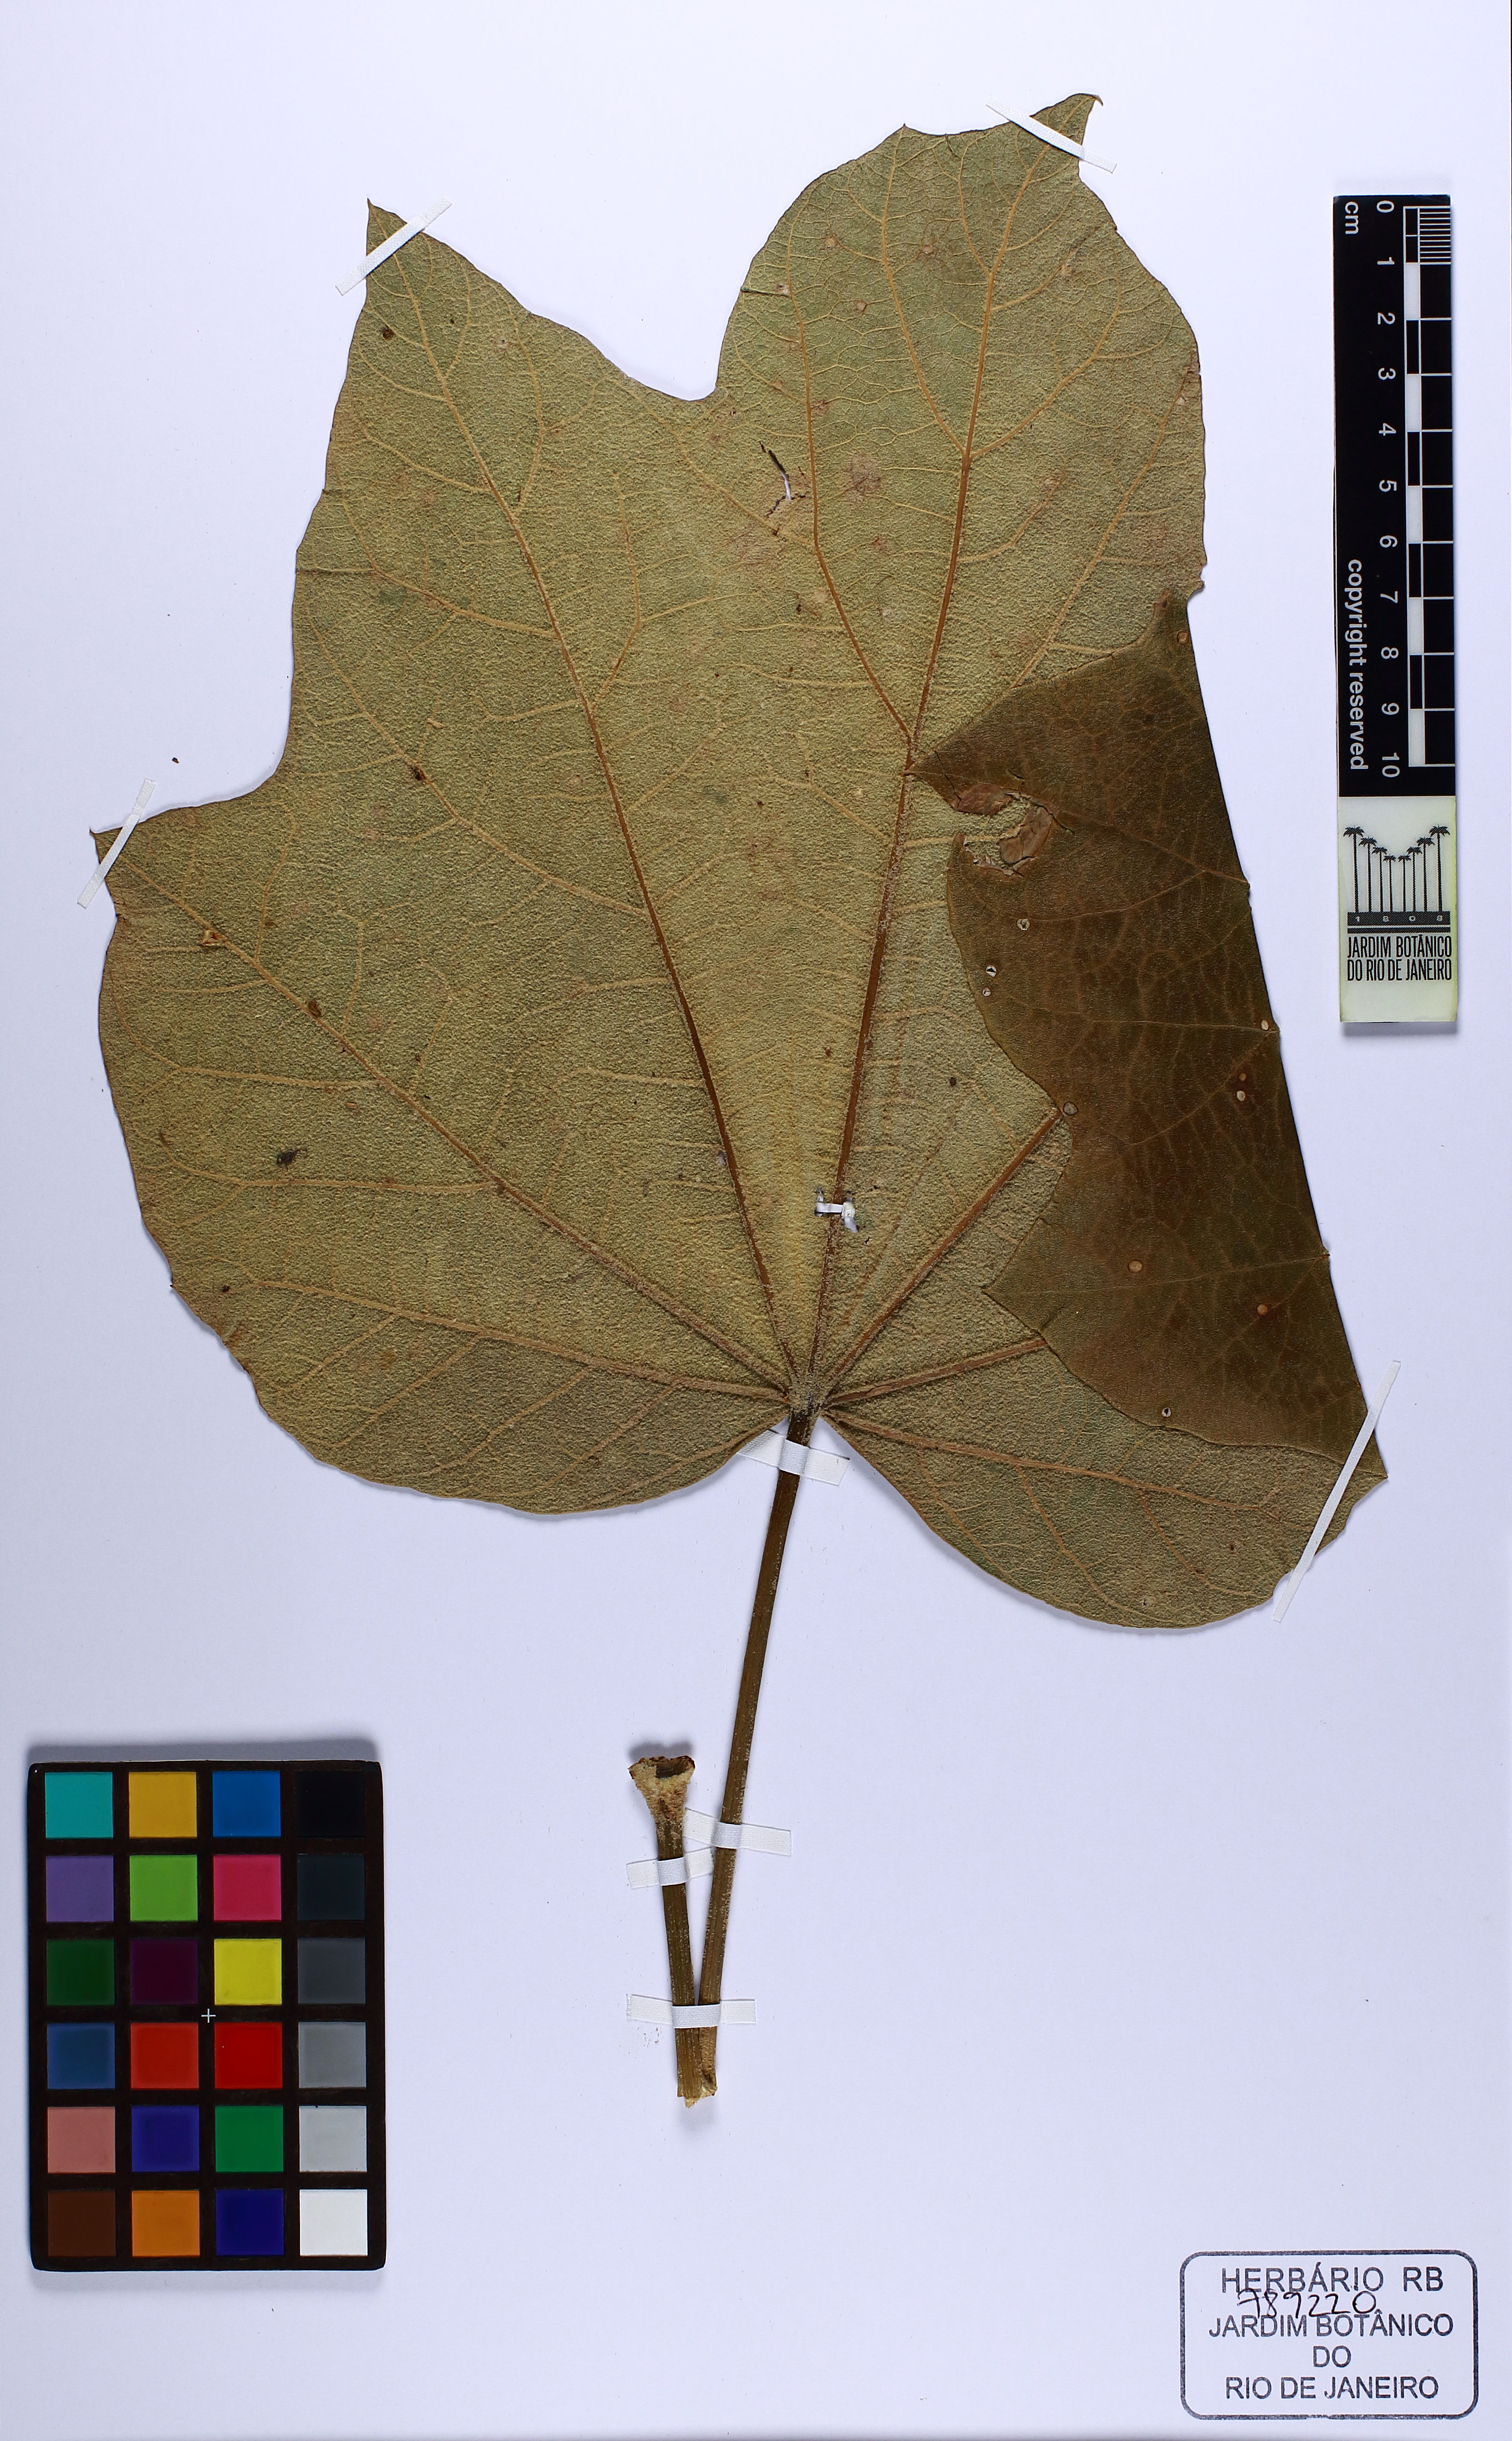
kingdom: Plantae
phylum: Tracheophyta
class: Magnoliopsida
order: Apiales
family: Araliaceae
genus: Oreopanax
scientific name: Oreopanax fulvus
